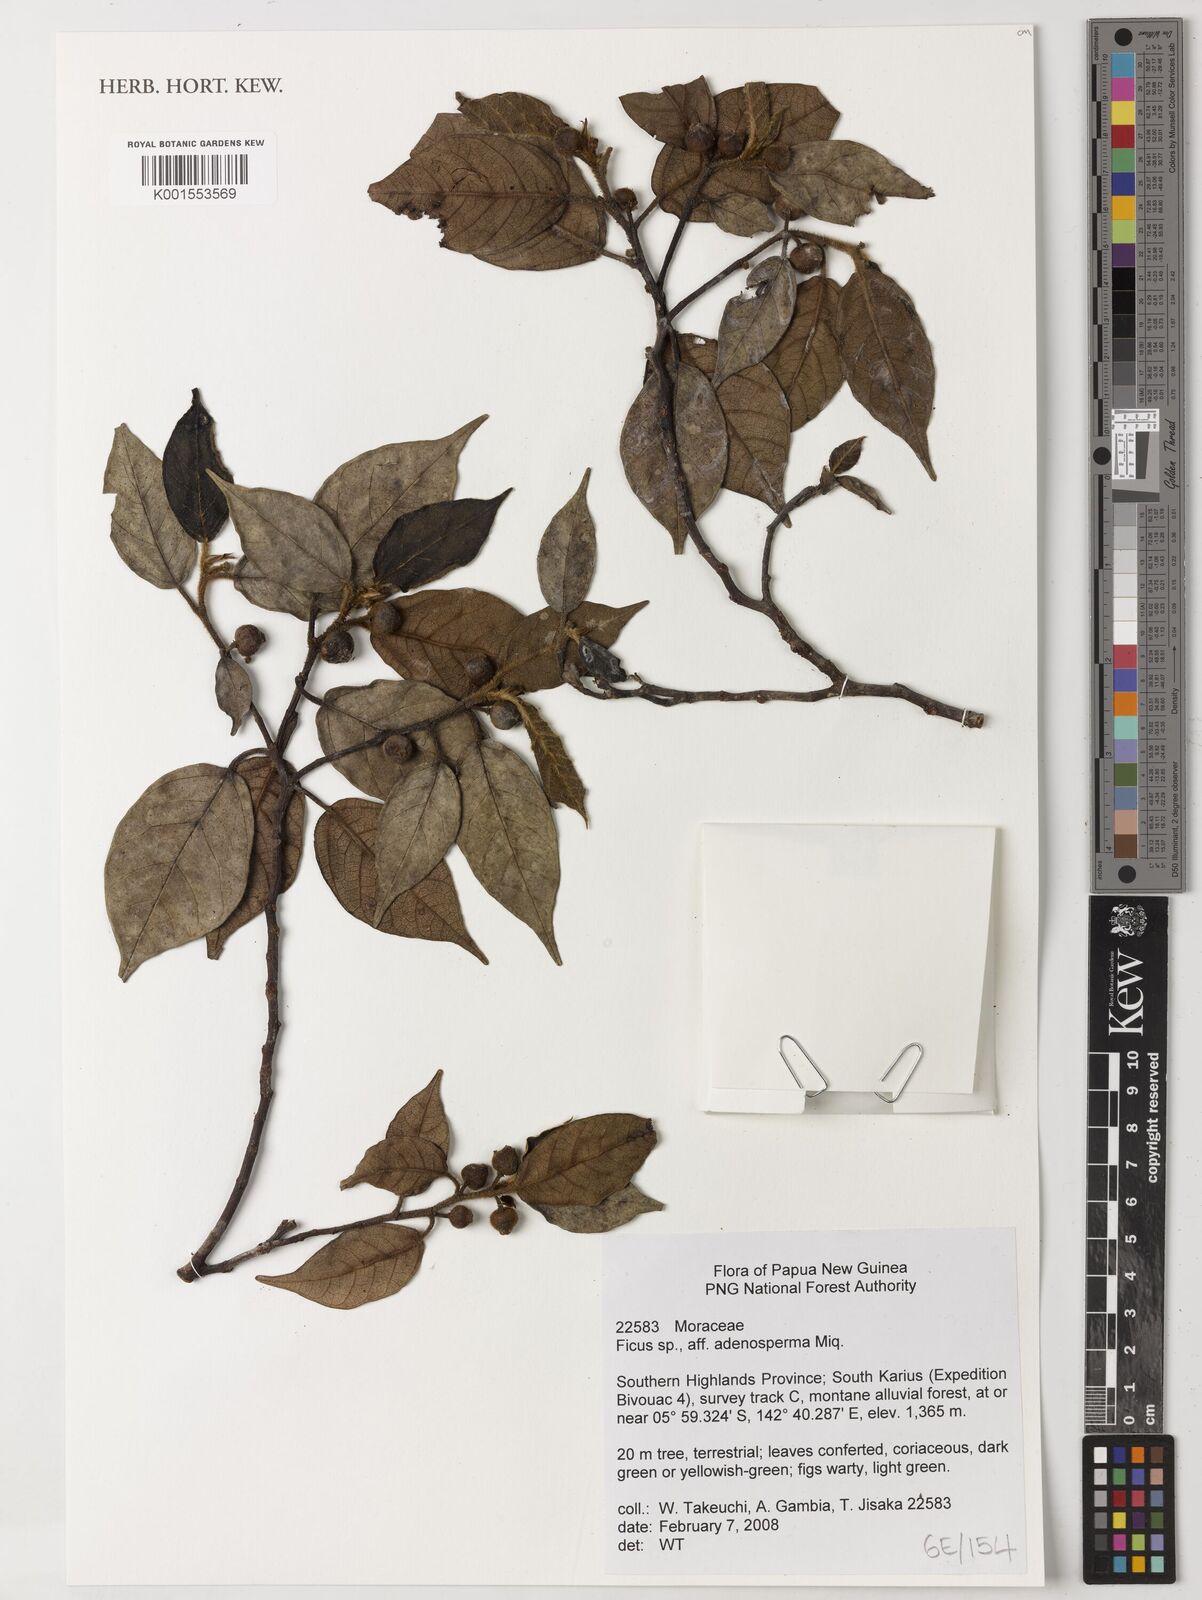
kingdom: Plantae
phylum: Tracheophyta
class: Magnoliopsida
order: Rosales
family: Moraceae
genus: Ficus
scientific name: Ficus adenosperma
